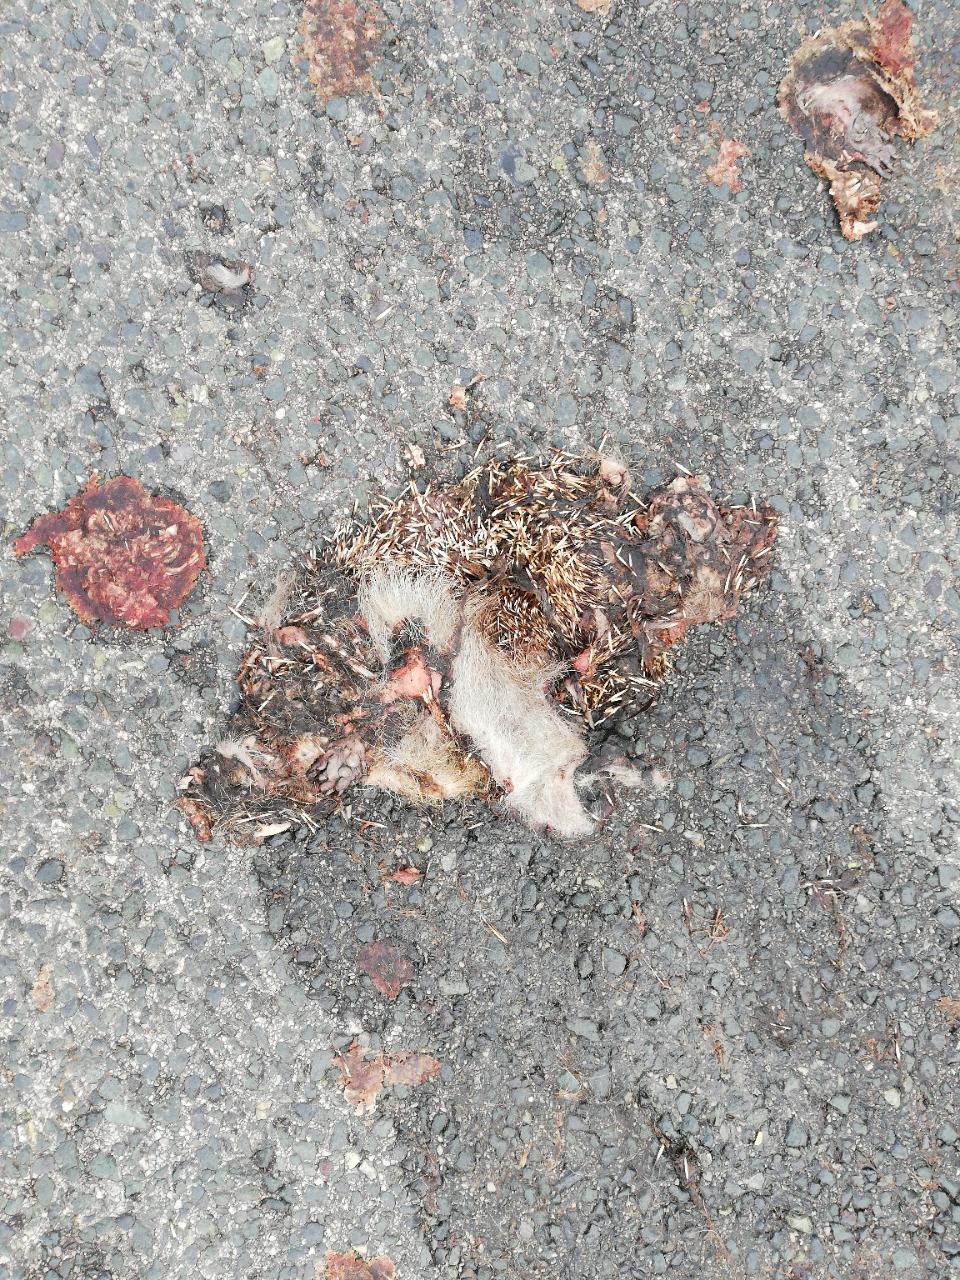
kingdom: Animalia
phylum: Chordata
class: Mammalia
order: Erinaceomorpha
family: Erinaceidae
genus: Erinaceus
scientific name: Erinaceus
